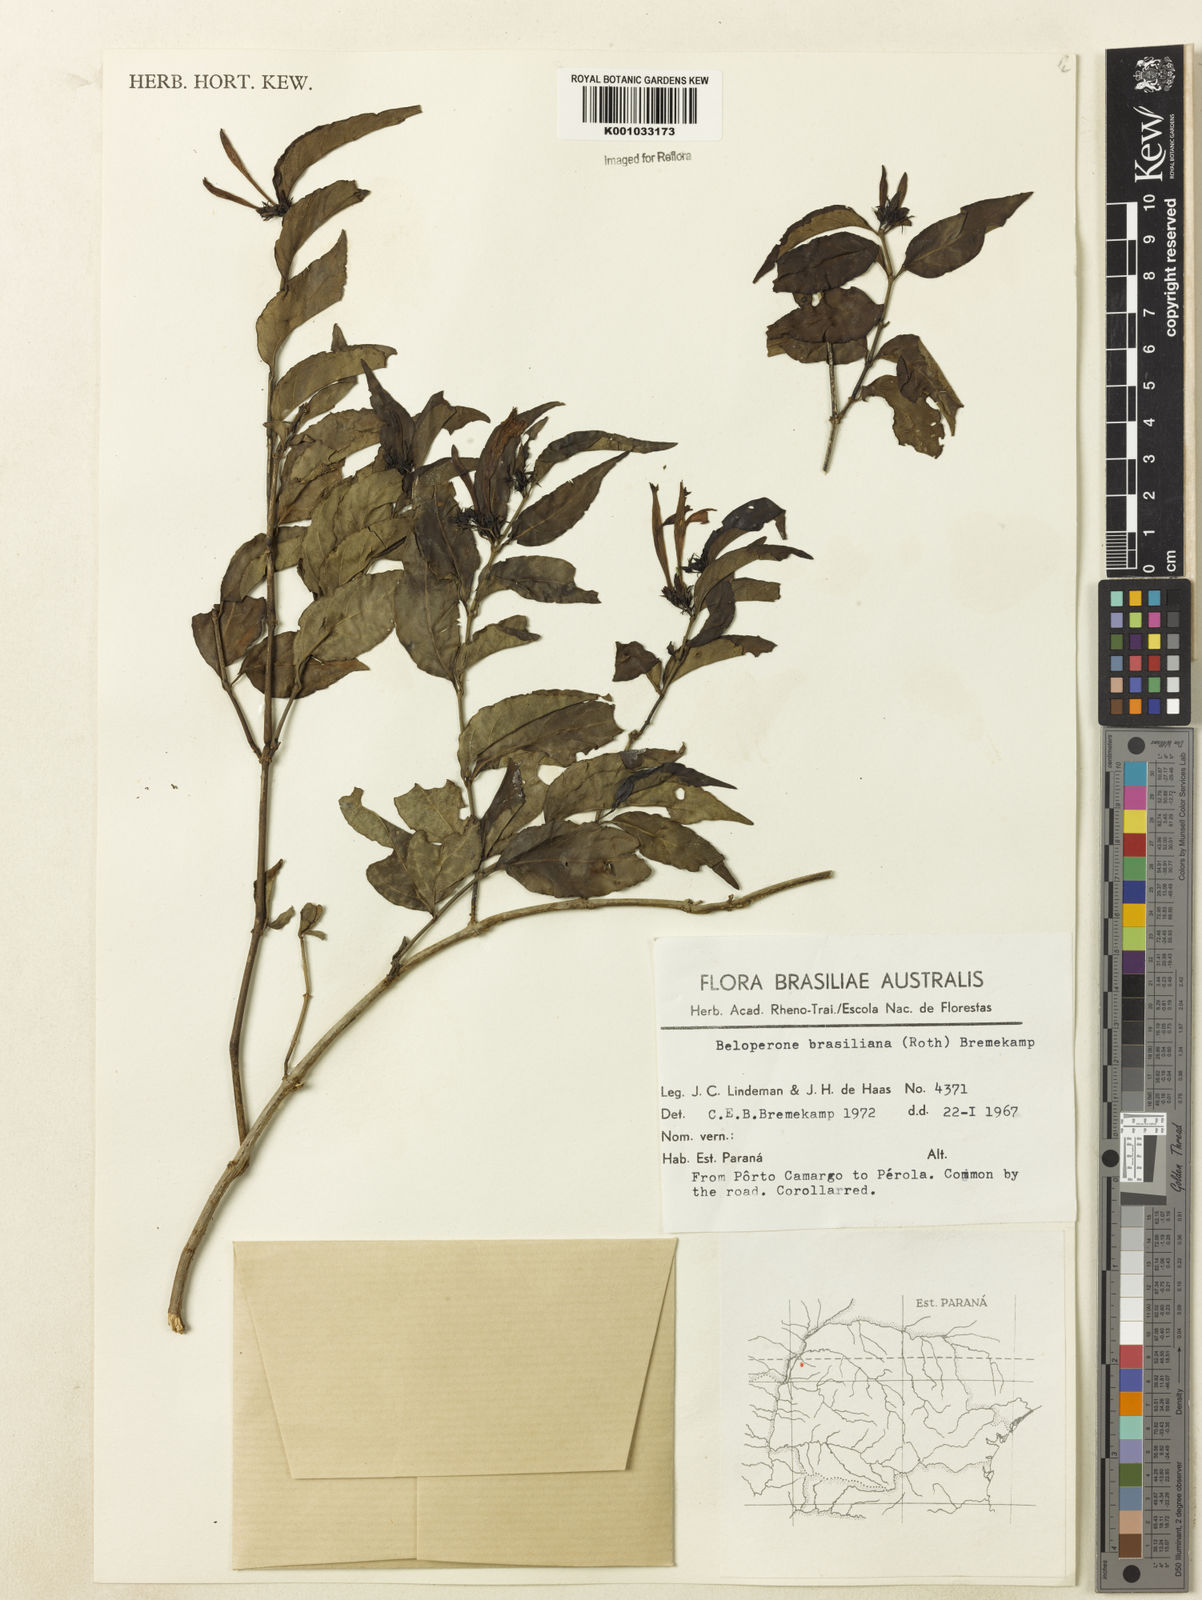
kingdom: Plantae
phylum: Tracheophyta
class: Magnoliopsida
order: Lamiales
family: Acanthaceae
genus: Justicia
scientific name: Justicia brasiliana
